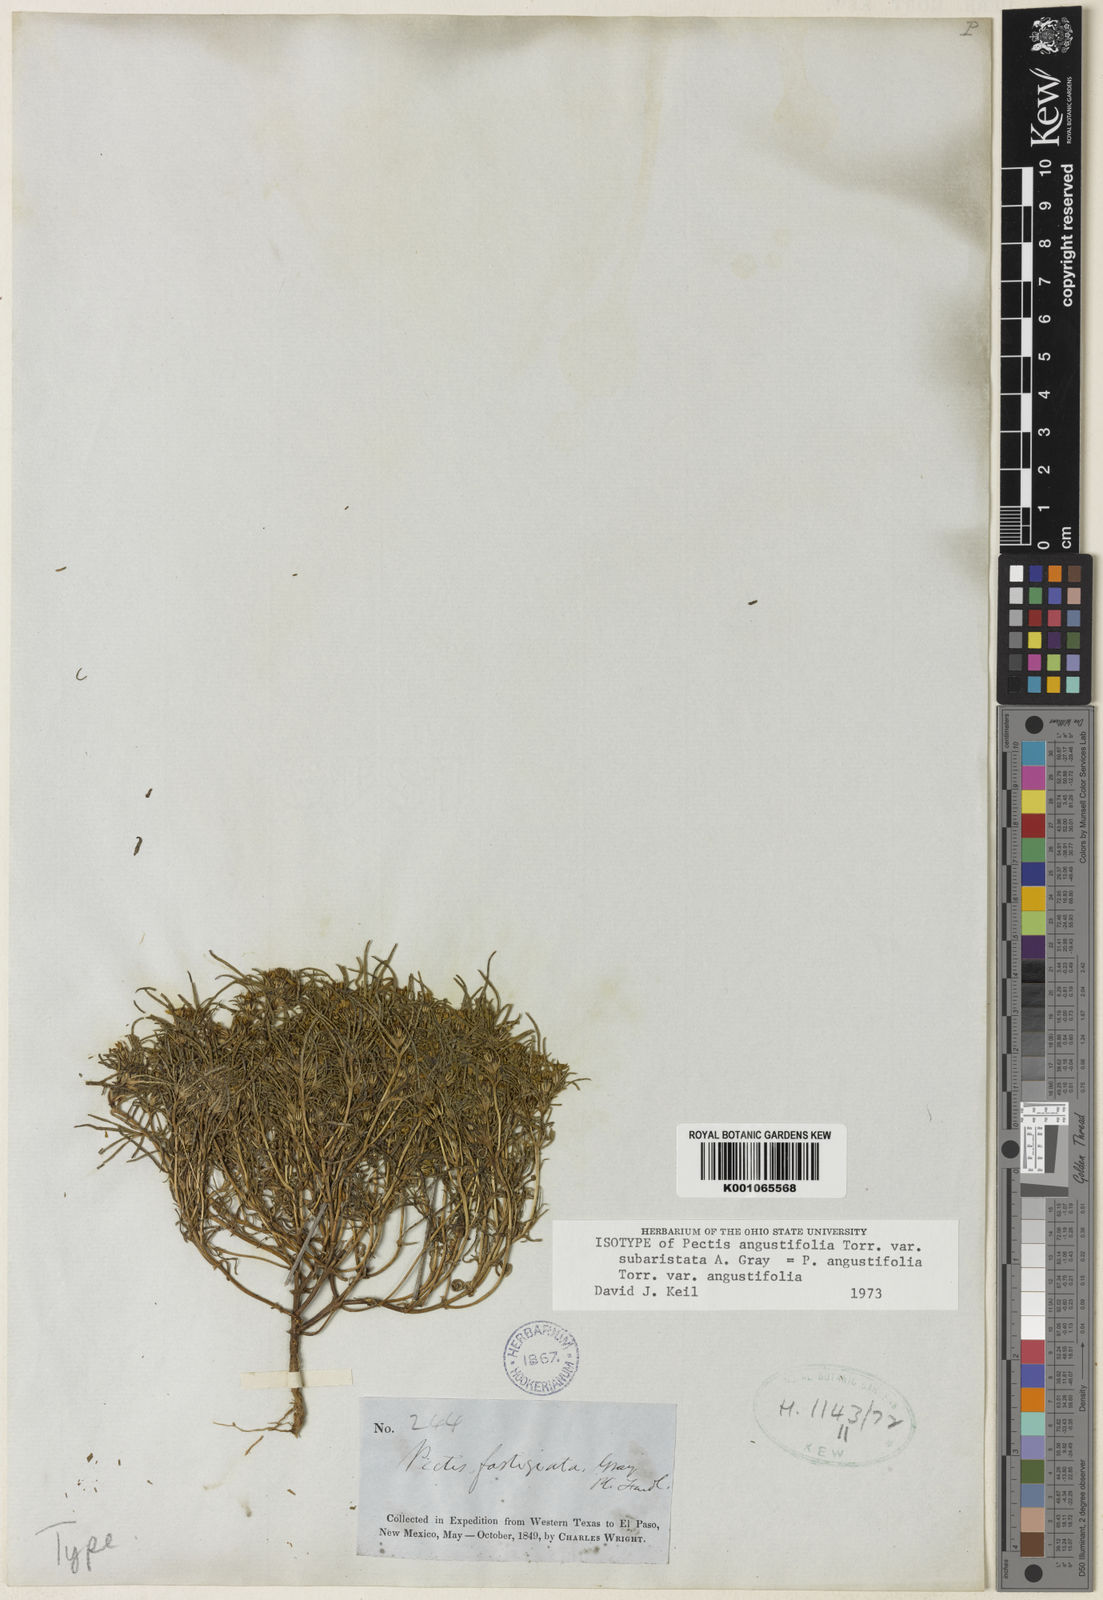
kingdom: Plantae
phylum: Tracheophyta
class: Magnoliopsida
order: Asterales
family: Asteraceae
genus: Pectis
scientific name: Pectis angustifolia
